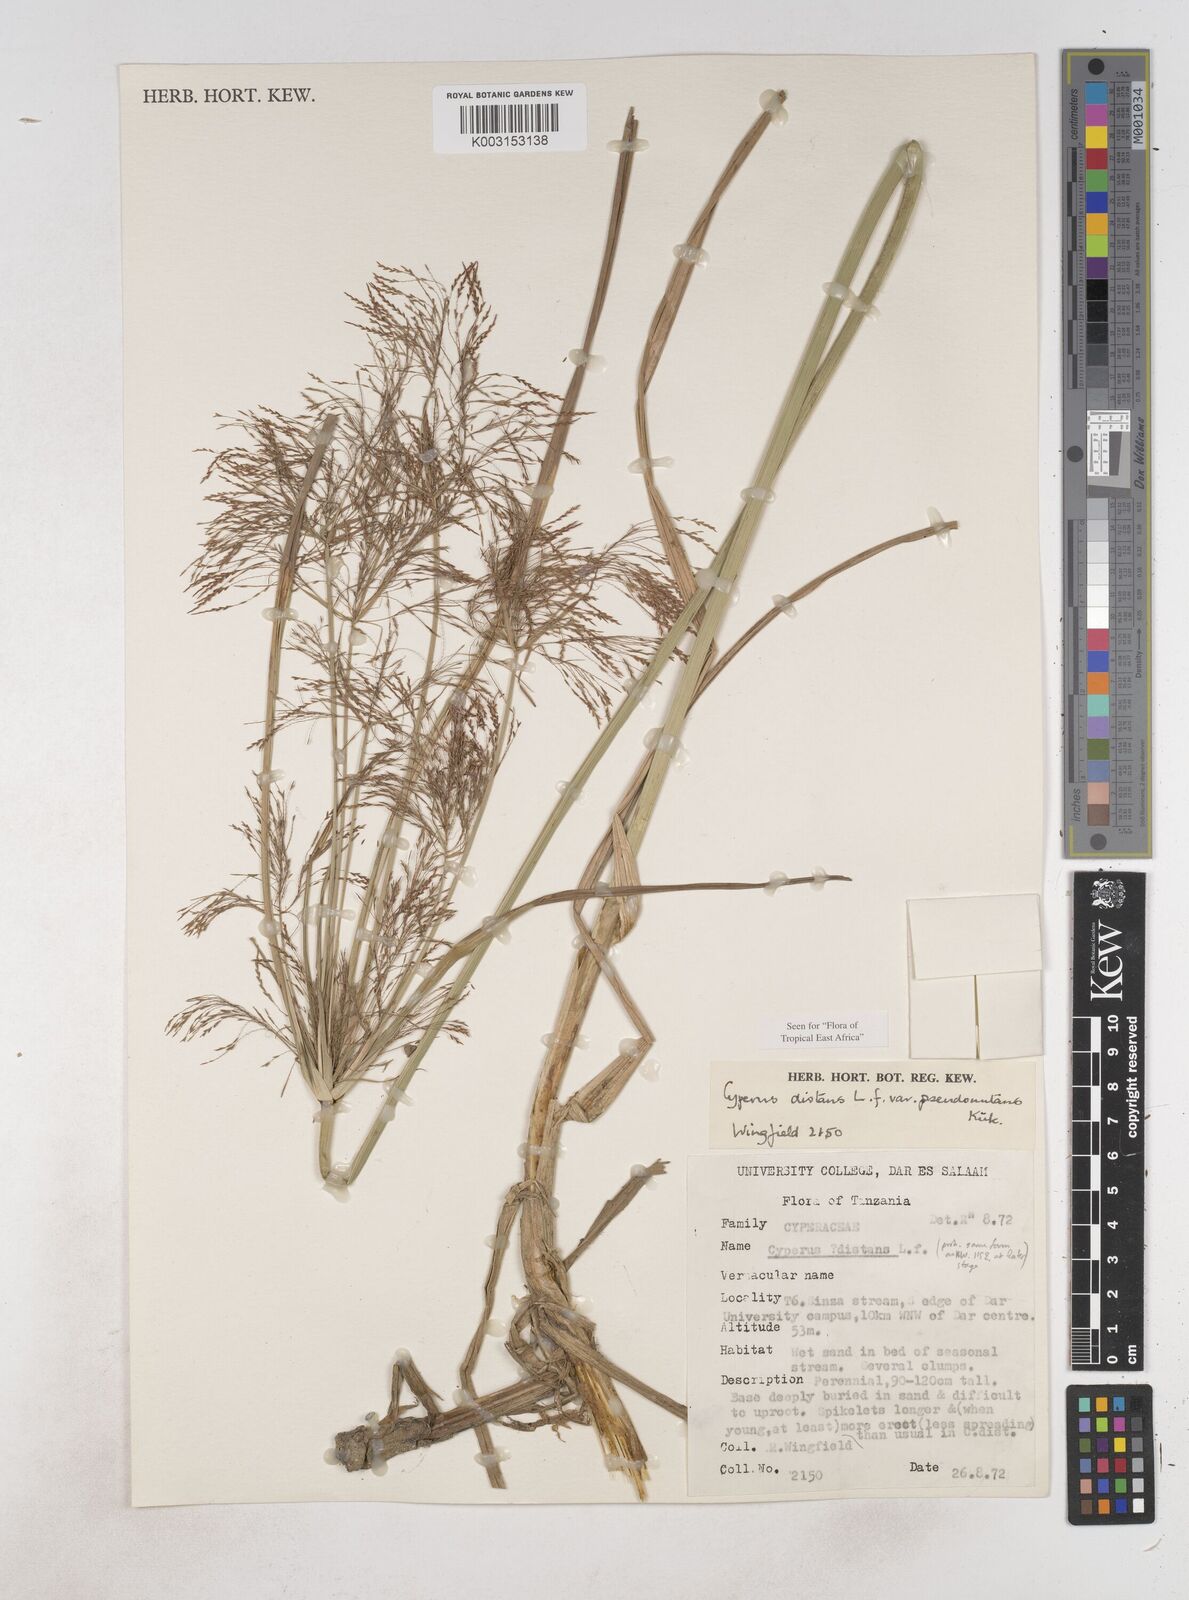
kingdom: Plantae
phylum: Tracheophyta
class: Liliopsida
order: Poales
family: Cyperaceae
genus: Cyperus
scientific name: Cyperus distans
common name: Slender cyperus
